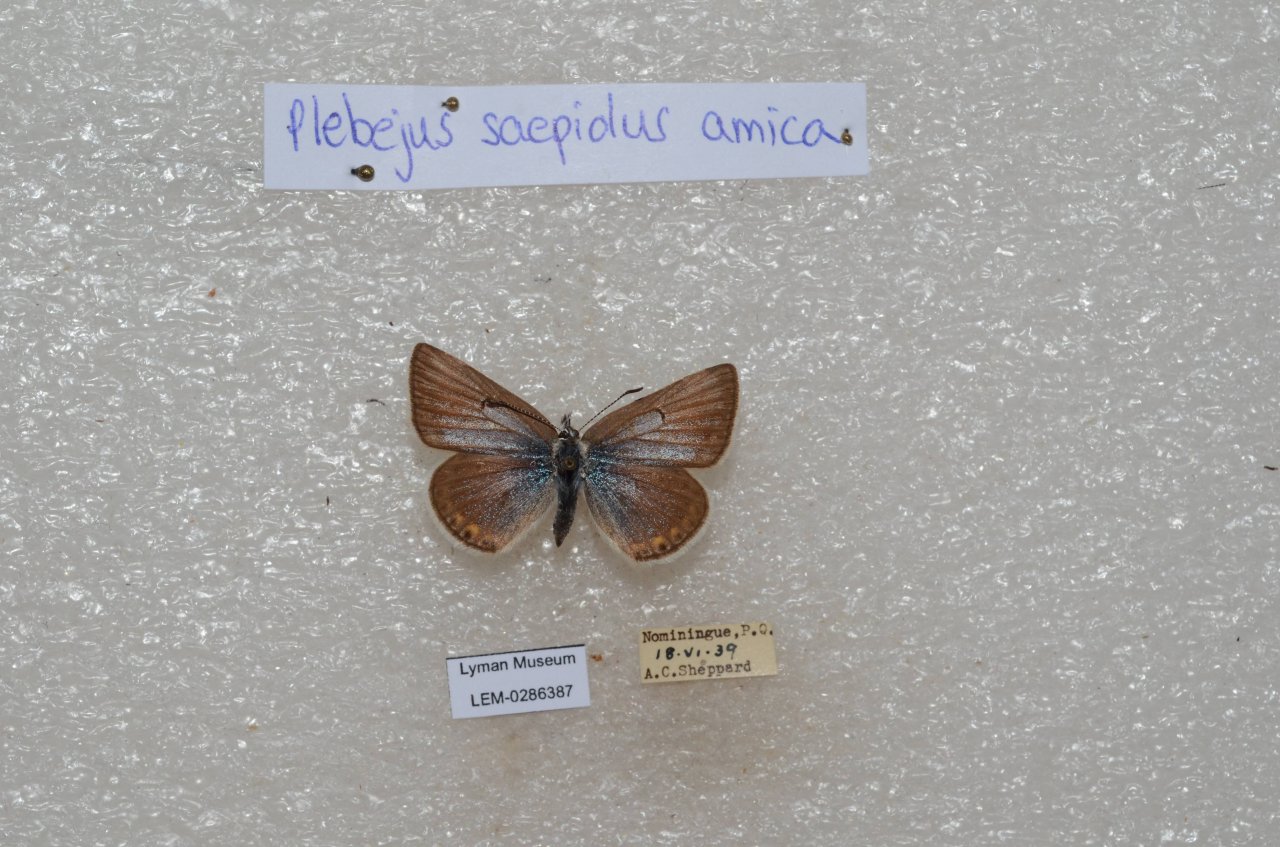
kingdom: Animalia
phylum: Arthropoda
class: Insecta
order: Lepidoptera
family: Lycaenidae
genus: Plebejus
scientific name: Plebejus saepiolus
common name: Greenish Blue
